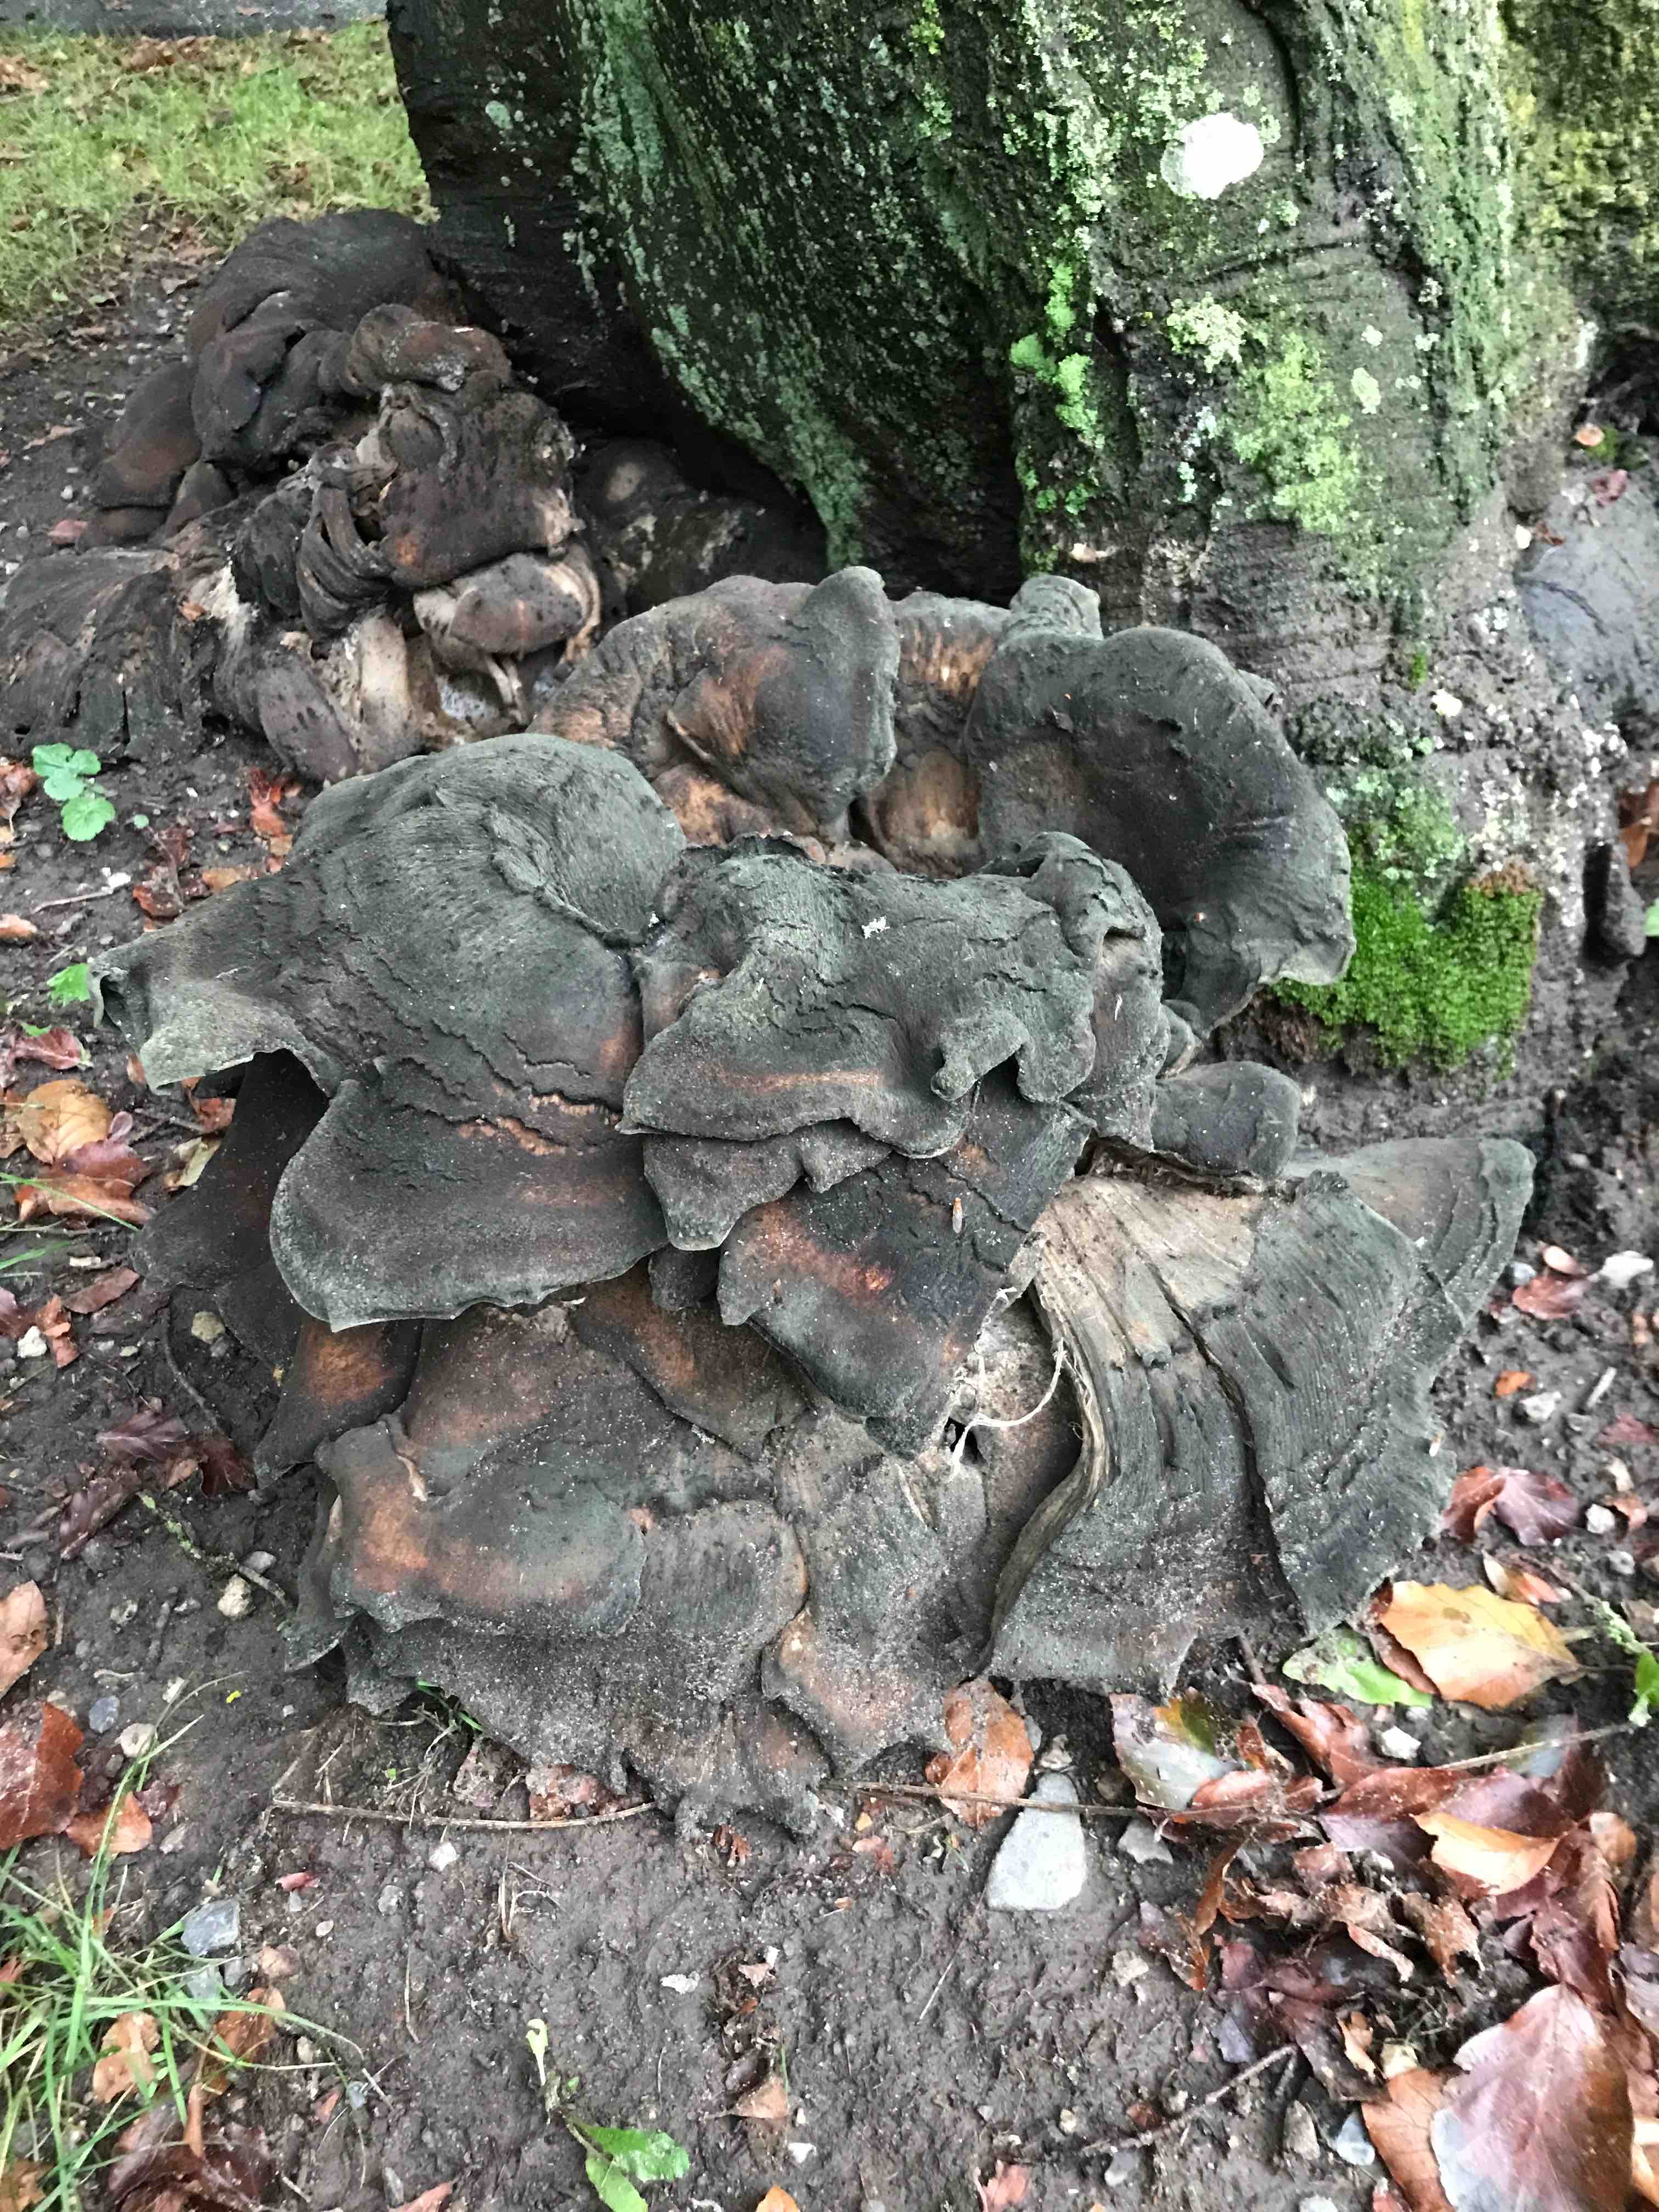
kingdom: Fungi
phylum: Basidiomycota
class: Agaricomycetes
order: Polyporales
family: Meripilaceae
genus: Meripilus
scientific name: Meripilus giganteus
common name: kæmpeporesvamp
